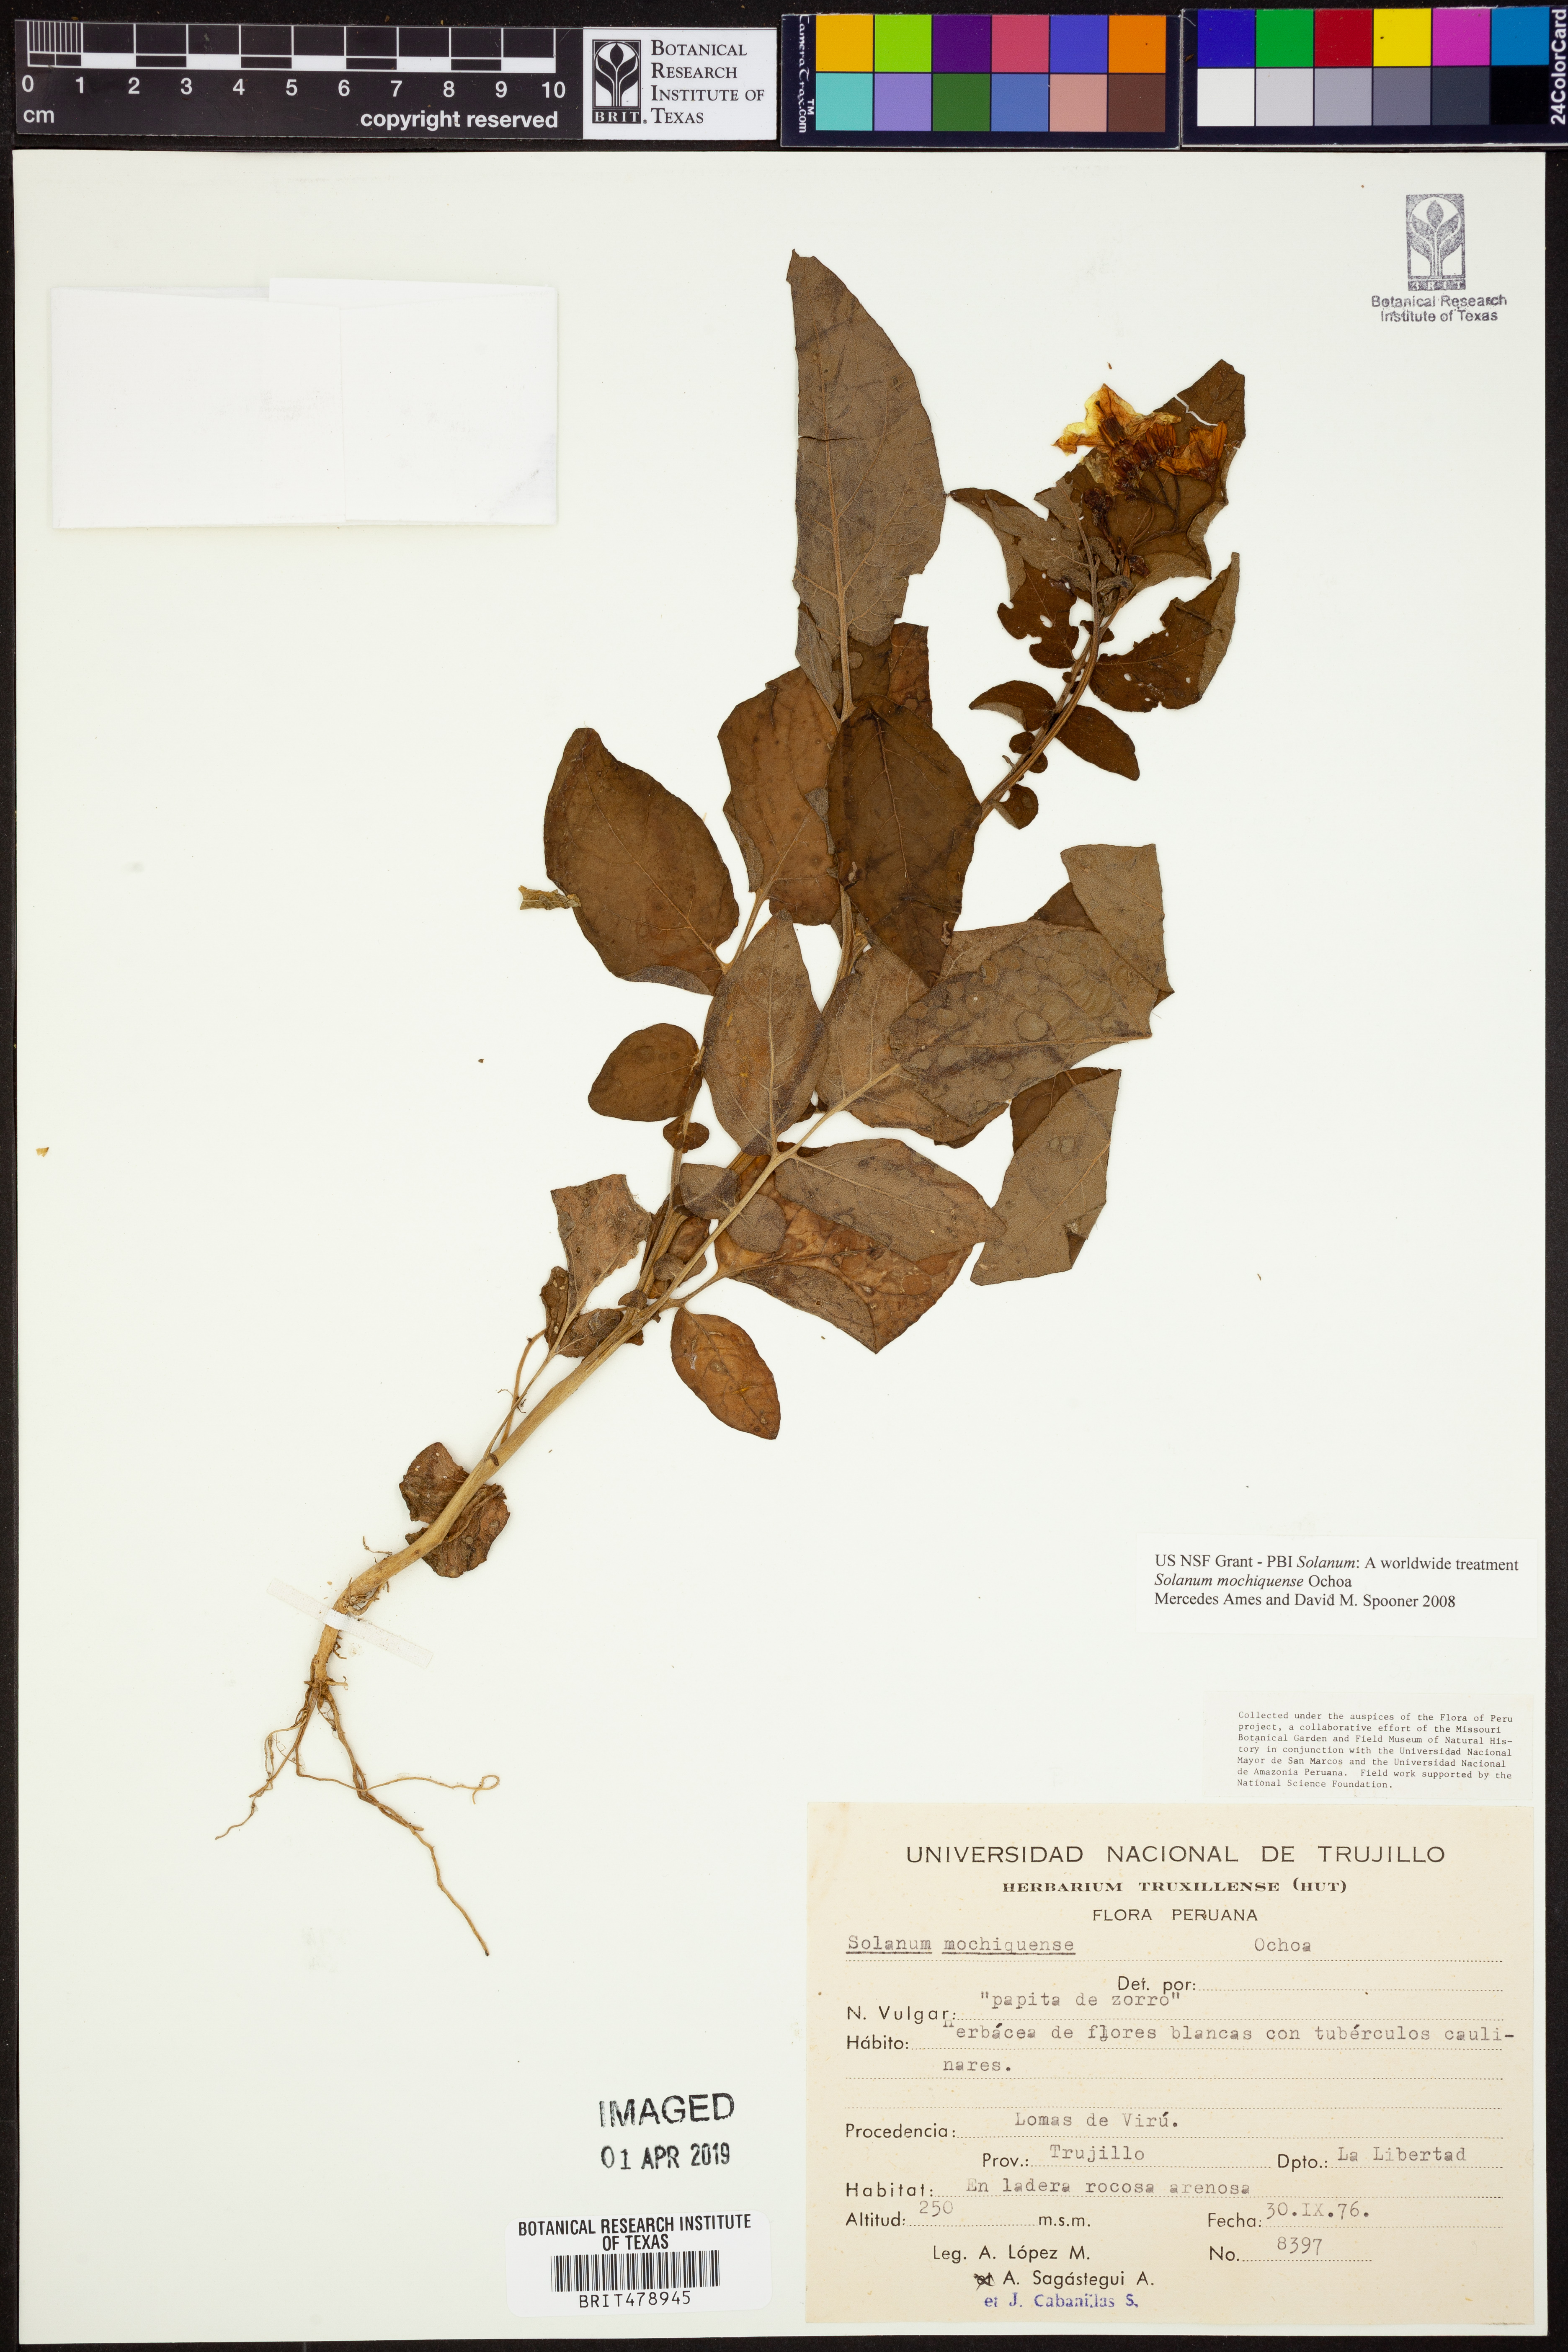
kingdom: Plantae
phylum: Tracheophyta
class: Magnoliopsida
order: Solanales
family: Solanaceae
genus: Solanum
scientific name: Solanum mochiquense
